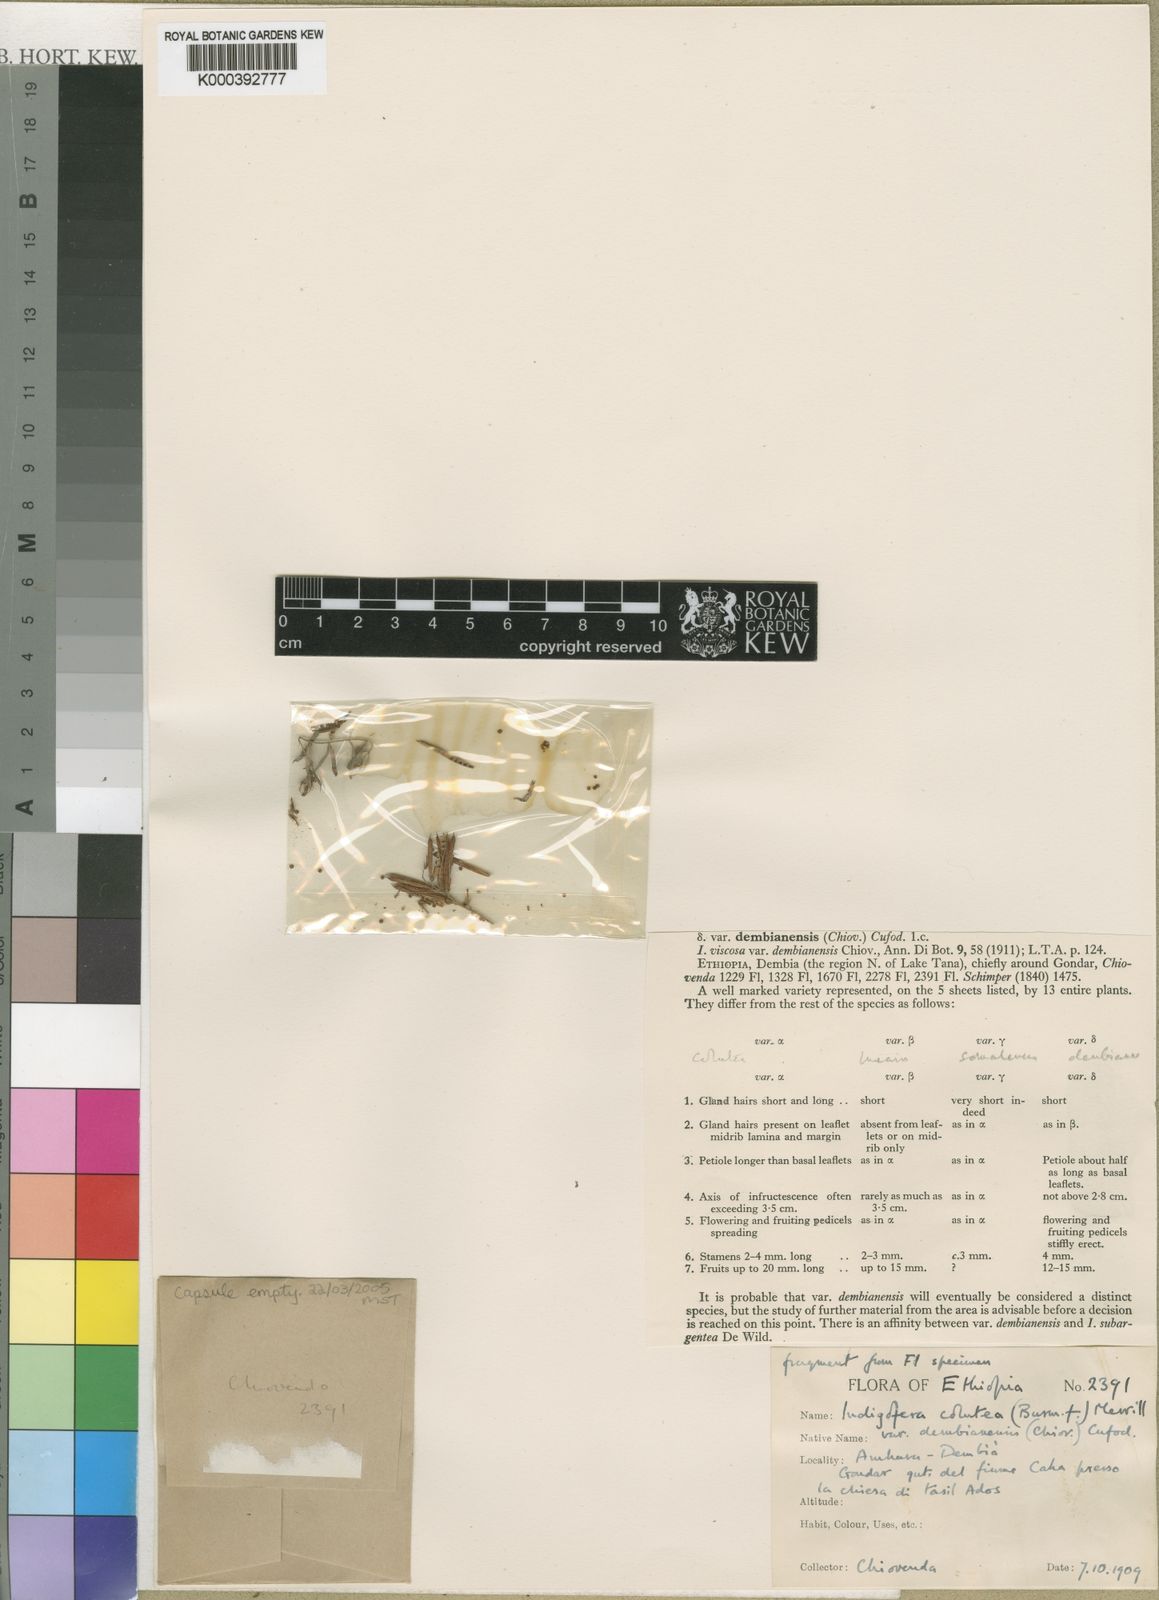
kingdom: Plantae
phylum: Tracheophyta
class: Magnoliopsida
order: Fabales
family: Fabaceae
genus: Indigofera
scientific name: Indigofera dembianensis
